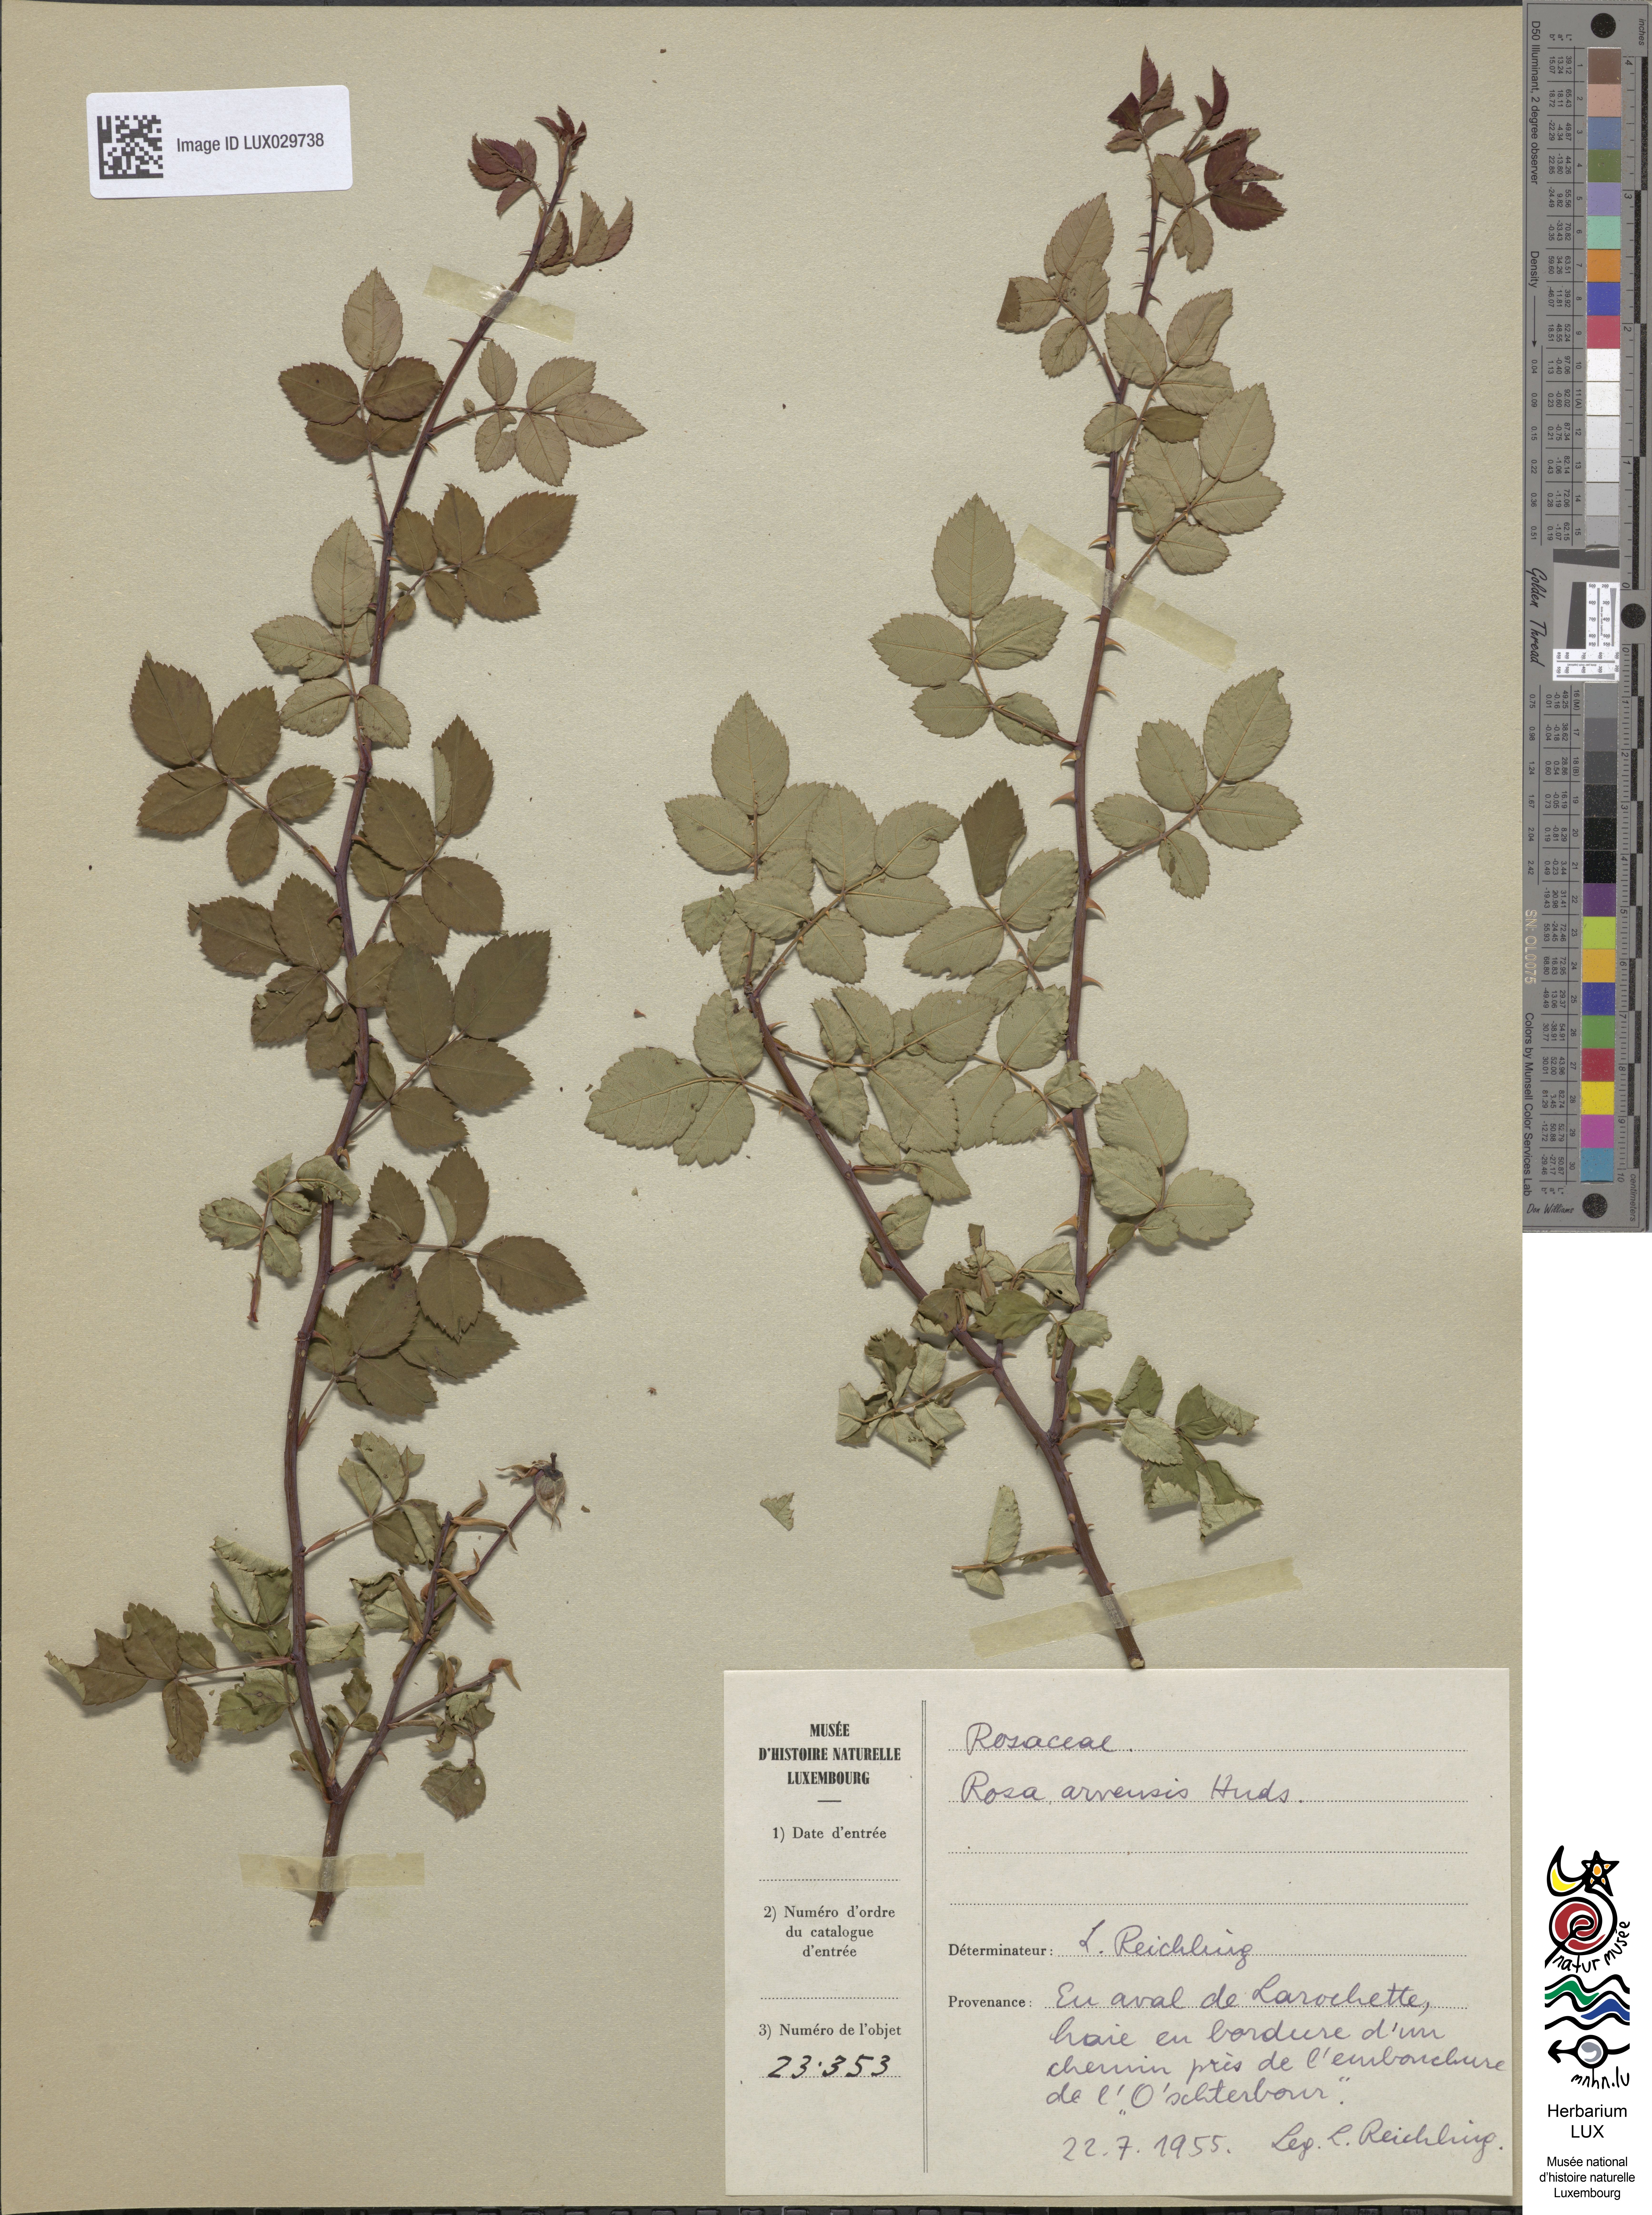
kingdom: Plantae
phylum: Tracheophyta
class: Magnoliopsida
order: Rosales
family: Rosaceae
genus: Rosa
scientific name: Rosa arvensis
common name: Field rose
